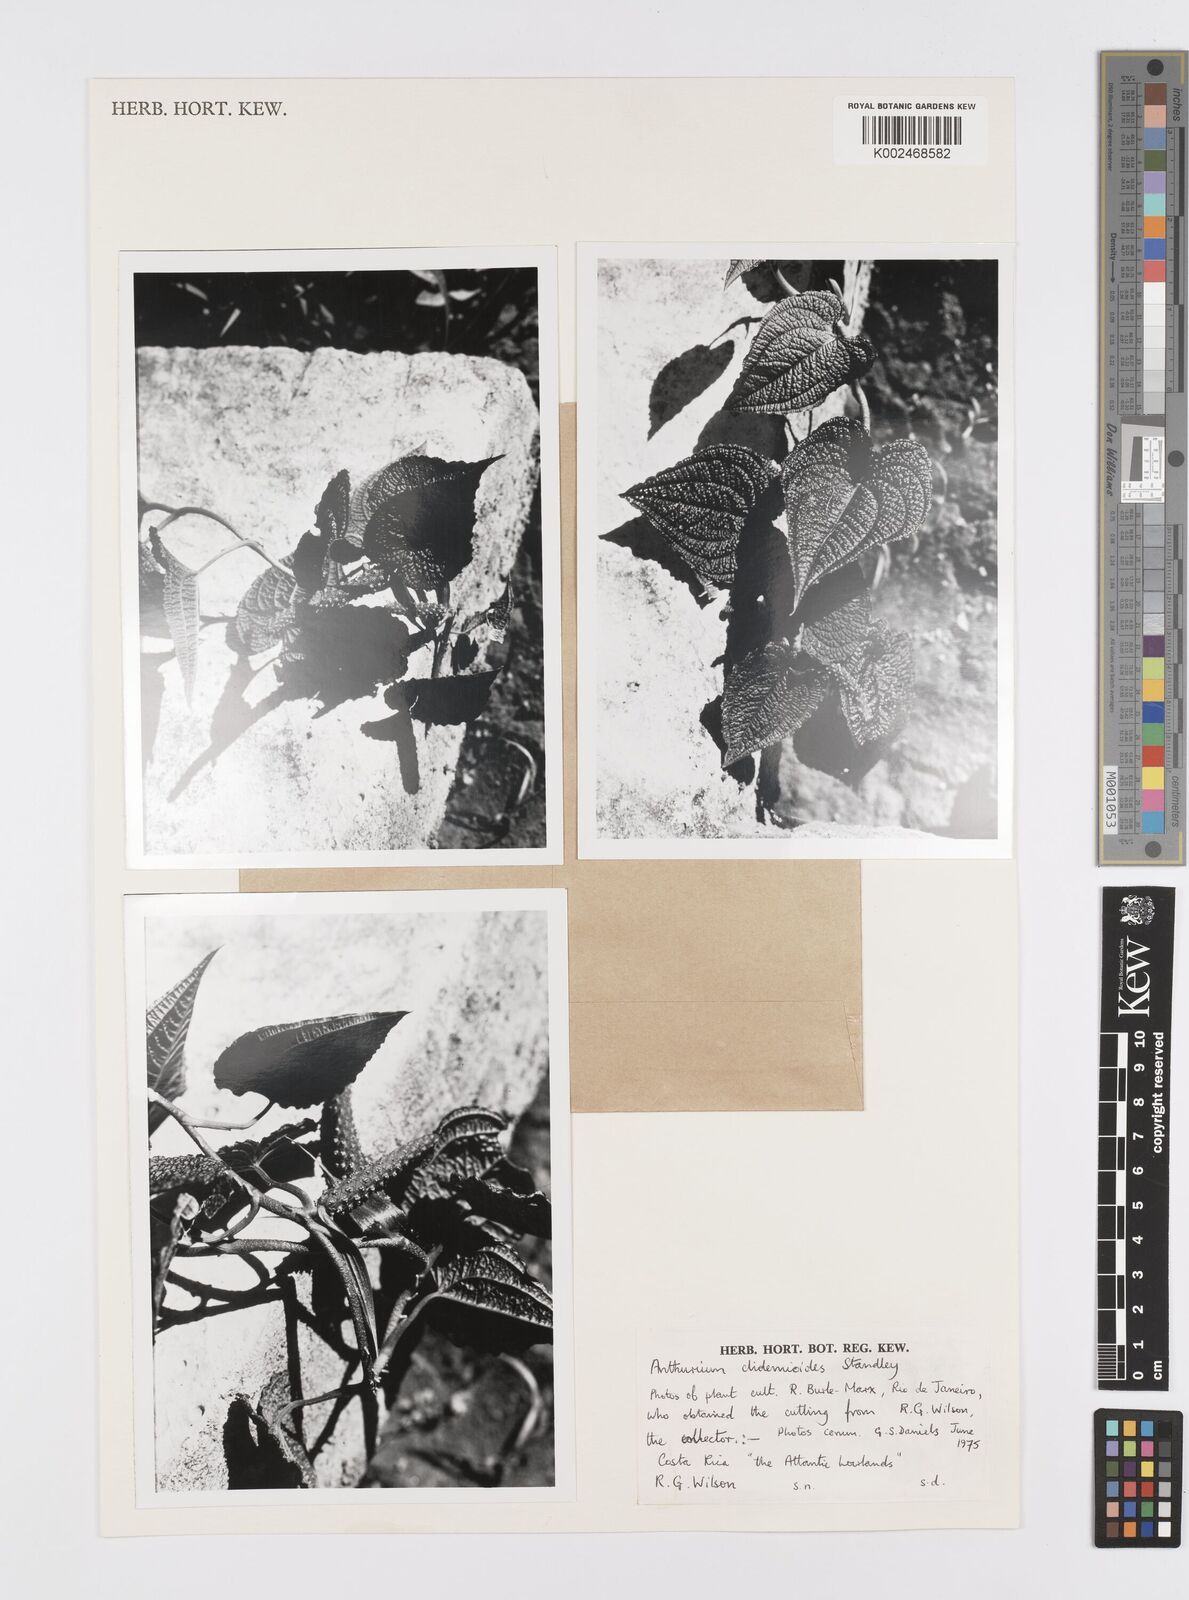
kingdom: Plantae
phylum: Tracheophyta
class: Liliopsida
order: Alismatales
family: Araceae
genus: Anthurium
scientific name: Anthurium clidemioides
